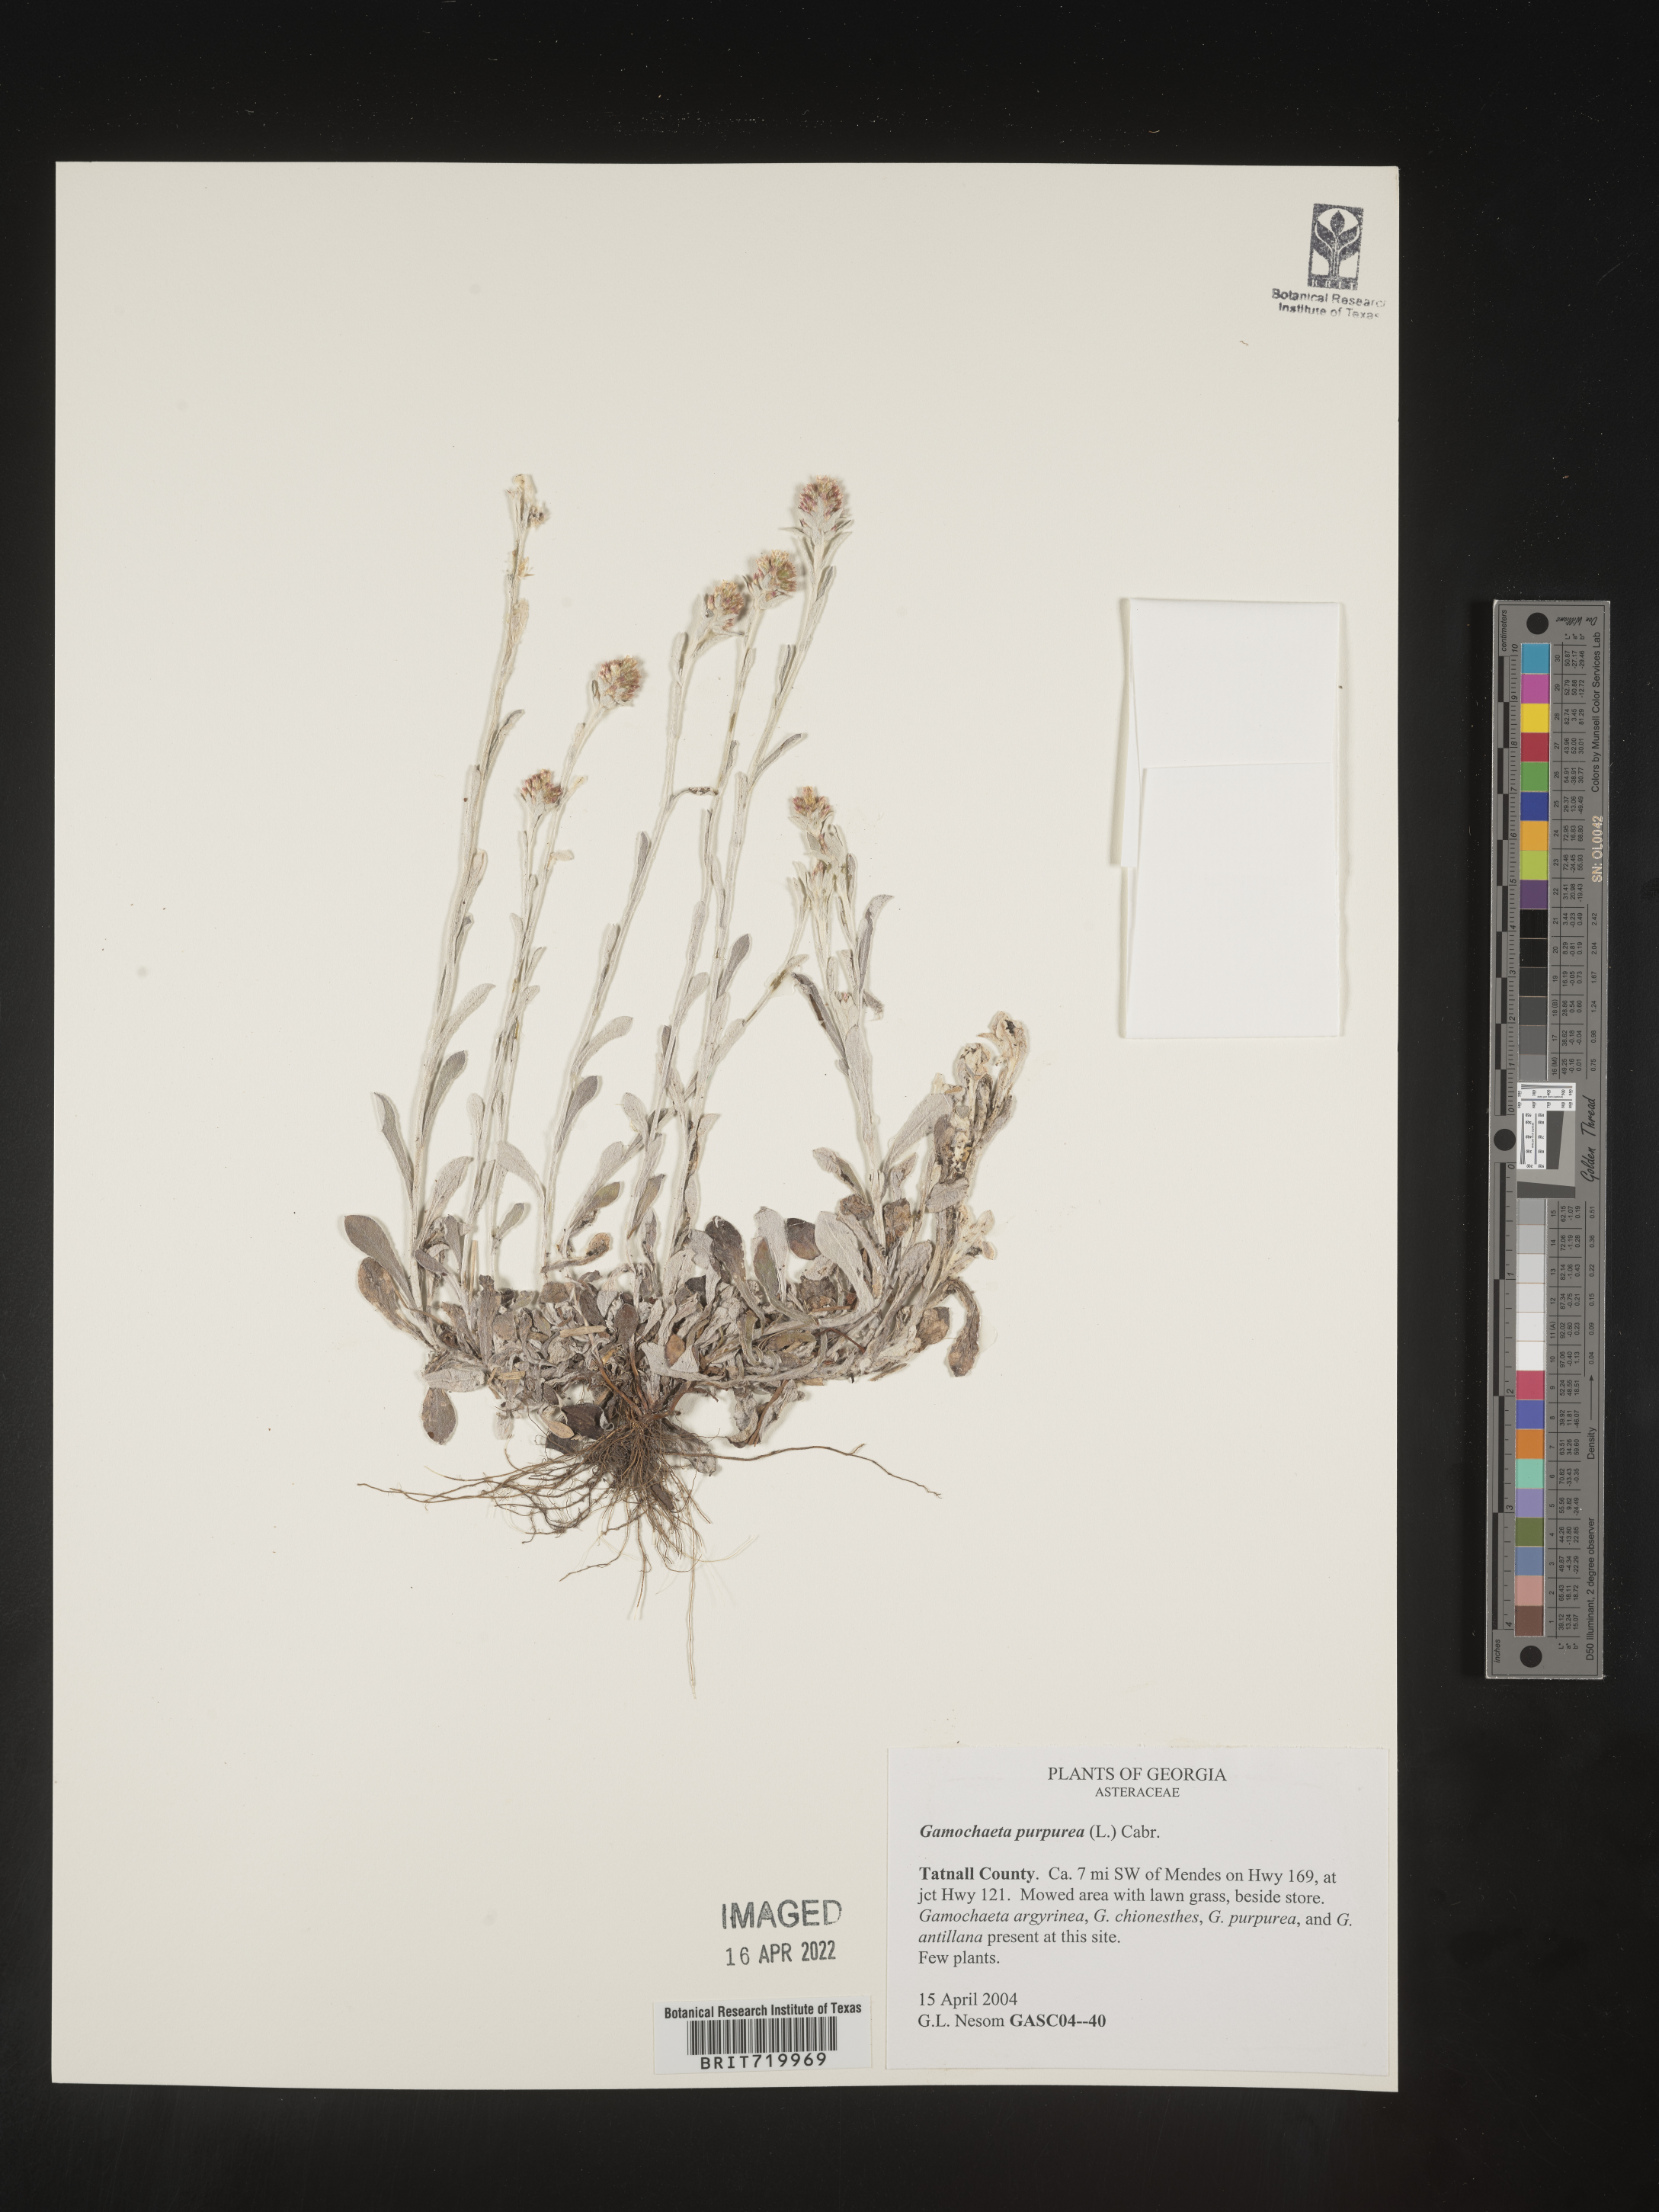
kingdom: Plantae
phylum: Tracheophyta
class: Magnoliopsida
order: Asterales
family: Asteraceae
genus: Gamochaeta
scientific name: Gamochaeta purpurea
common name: Purple cudweed
